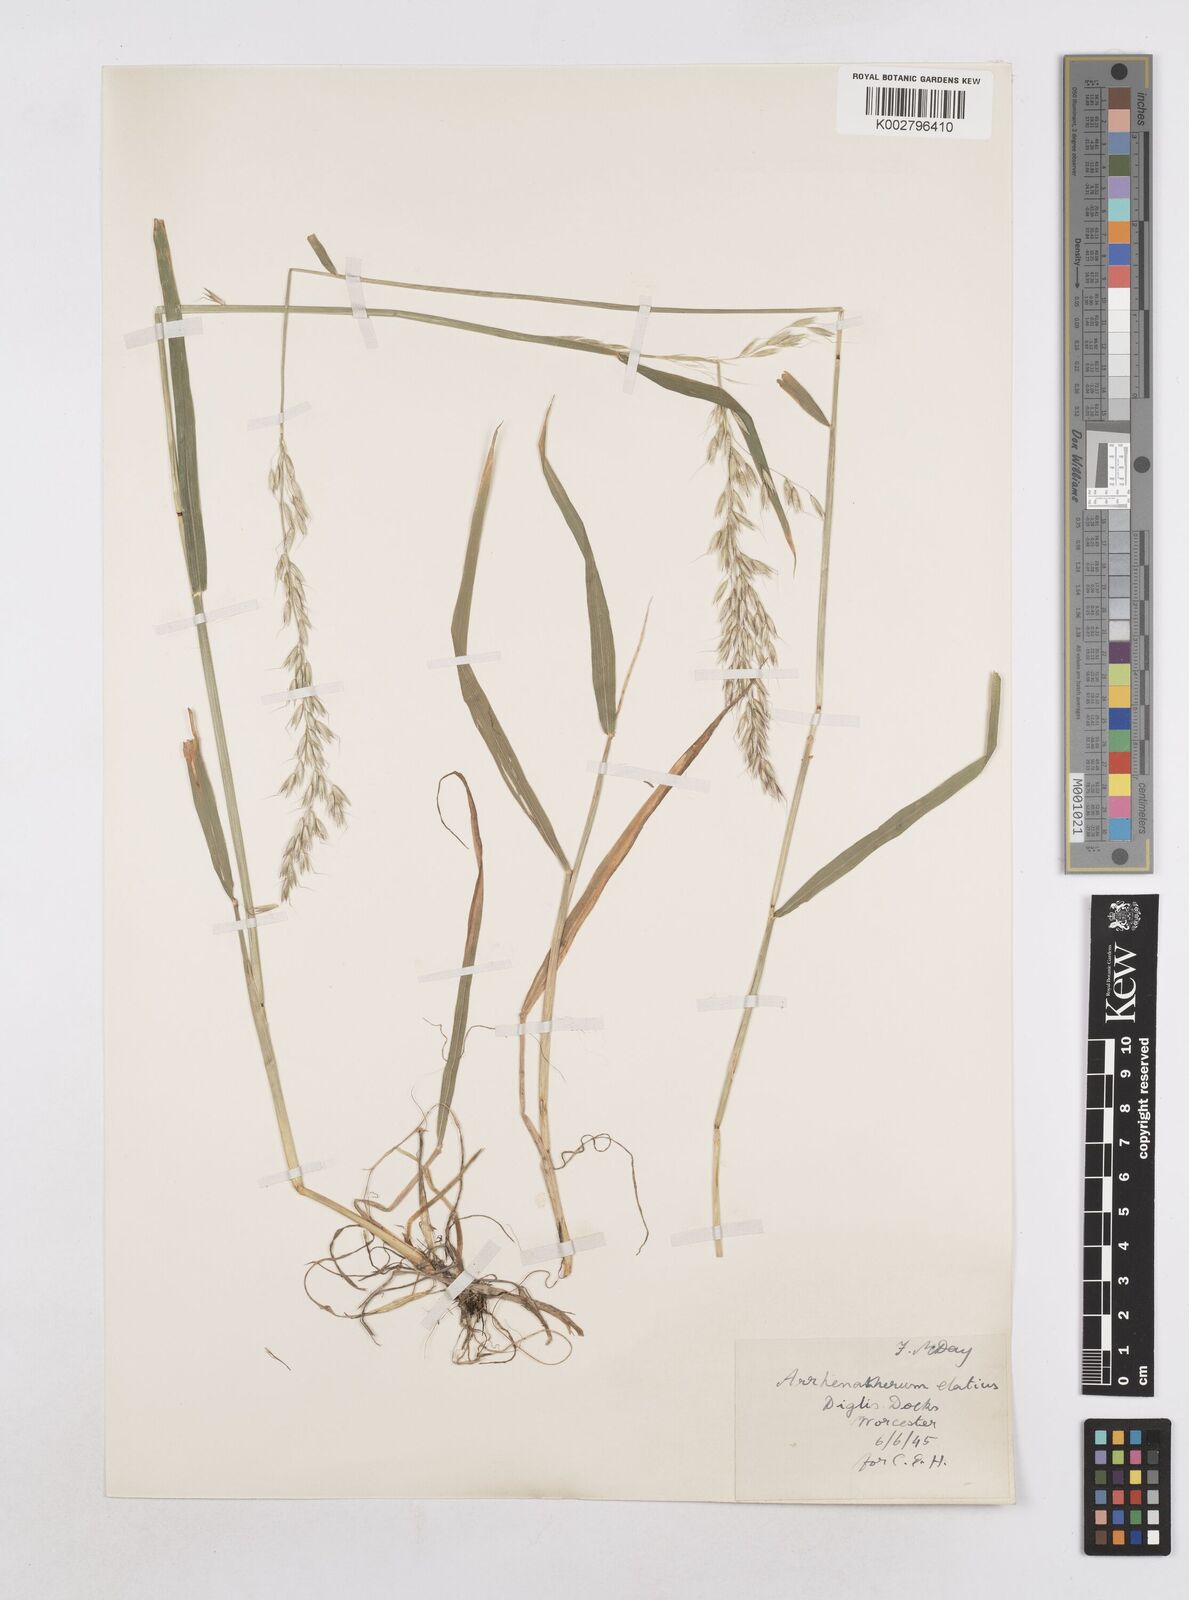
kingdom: Plantae
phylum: Tracheophyta
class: Liliopsida
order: Poales
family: Poaceae
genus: Arrhenatherum
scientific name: Arrhenatherum elatius
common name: Tall oatgrass
